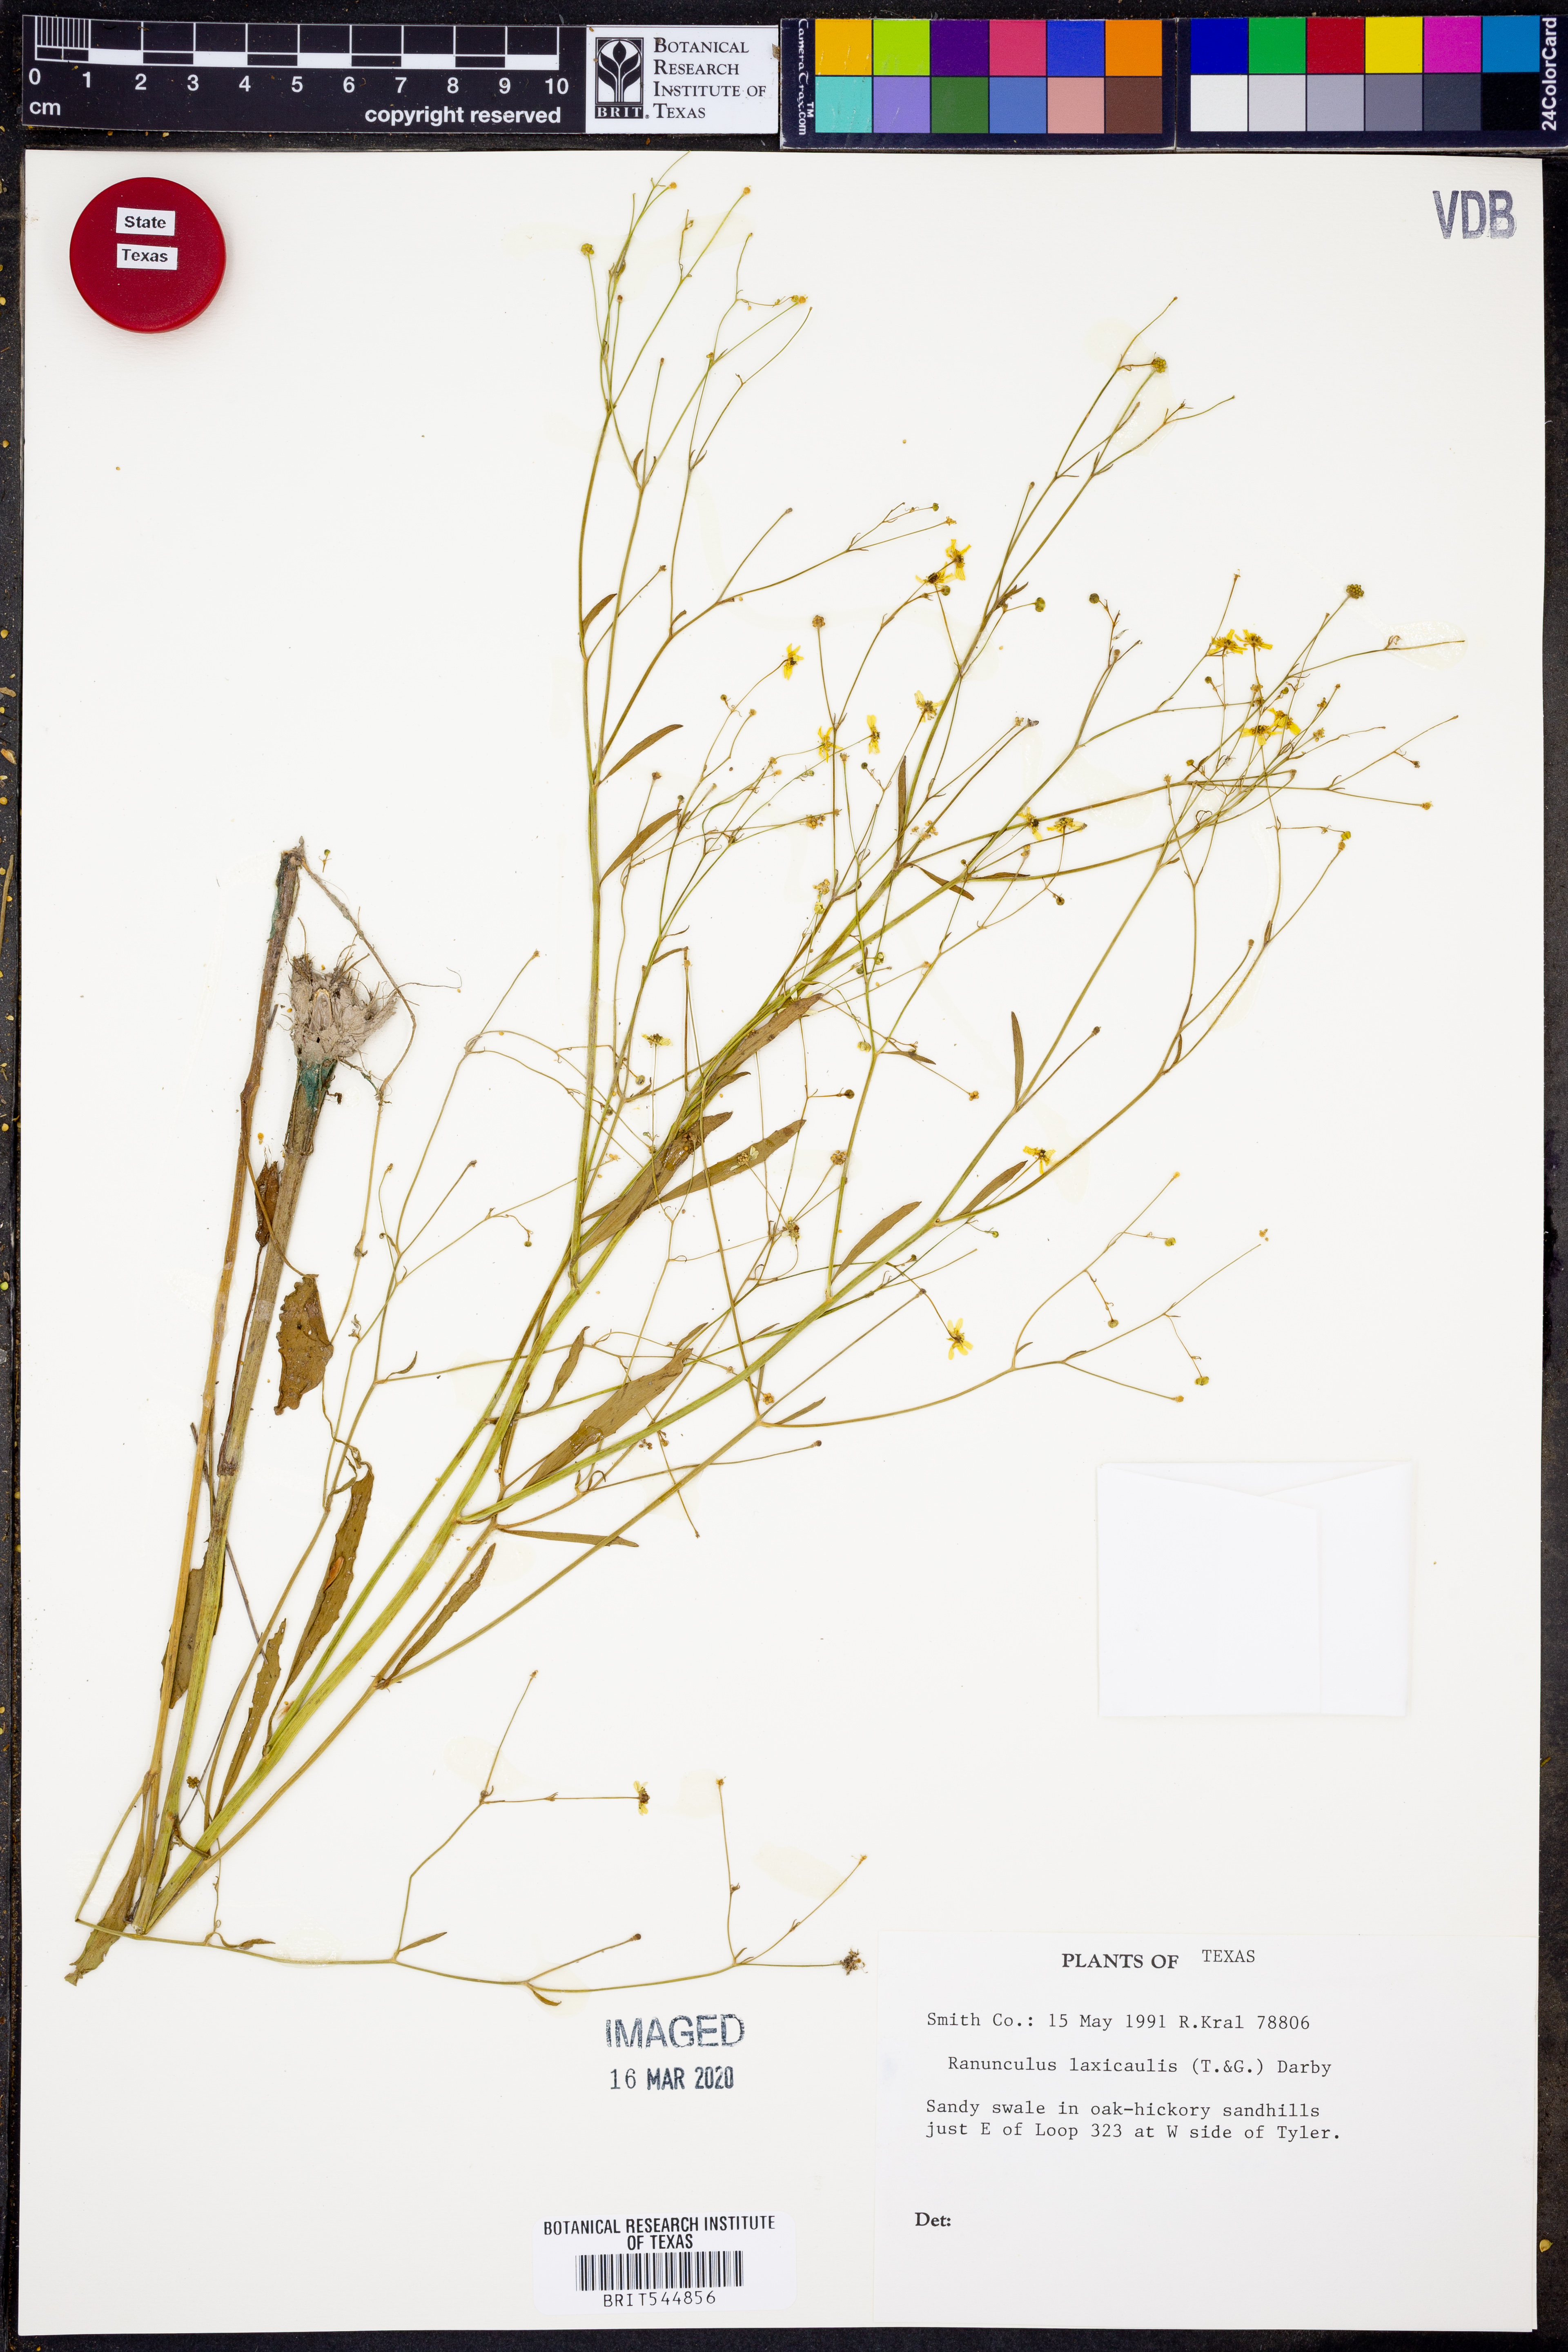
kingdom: Plantae
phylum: Tracheophyta
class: Magnoliopsida
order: Ranunculales
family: Ranunculaceae
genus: Ranunculus
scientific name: Ranunculus laxicaulis
